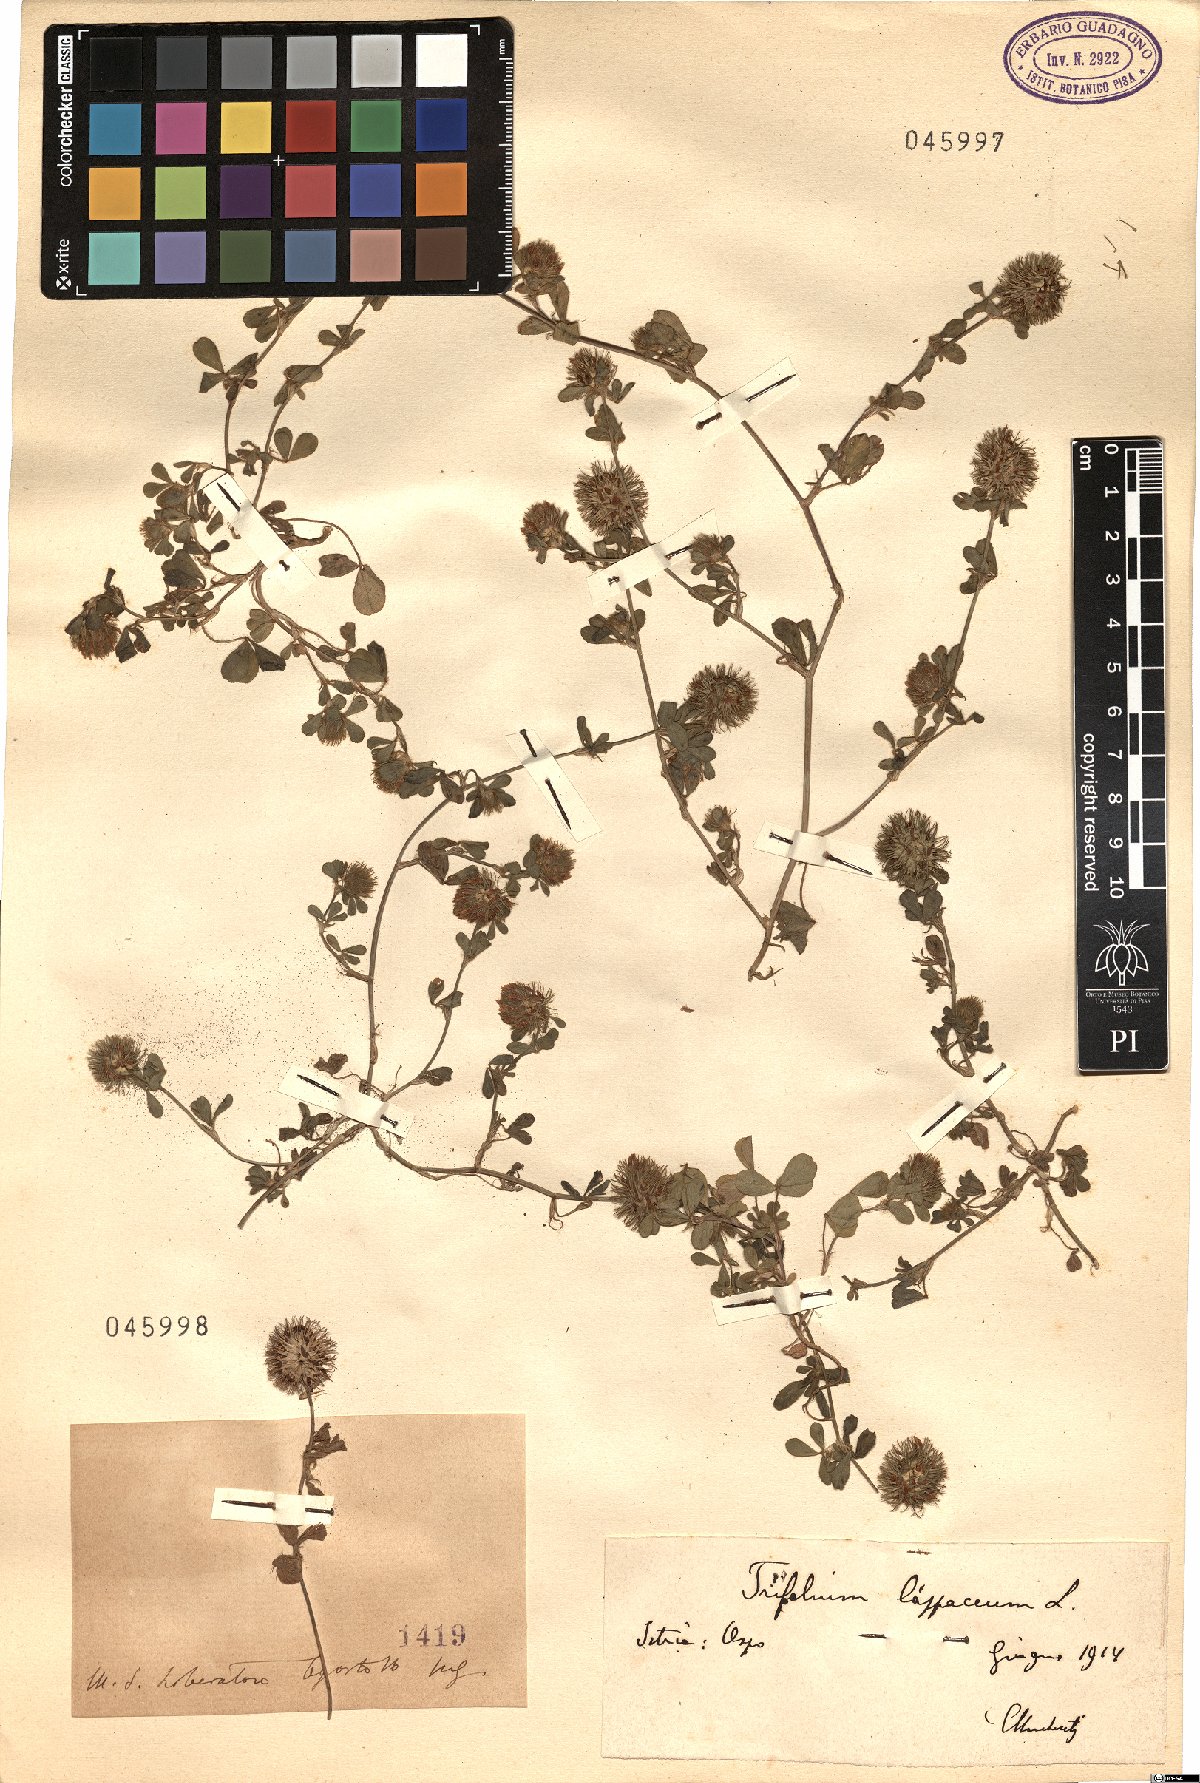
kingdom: Plantae
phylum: Tracheophyta
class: Magnoliopsida
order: Fabales
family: Fabaceae
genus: Trifolium
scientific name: Trifolium lappaceum
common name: Bur clover
